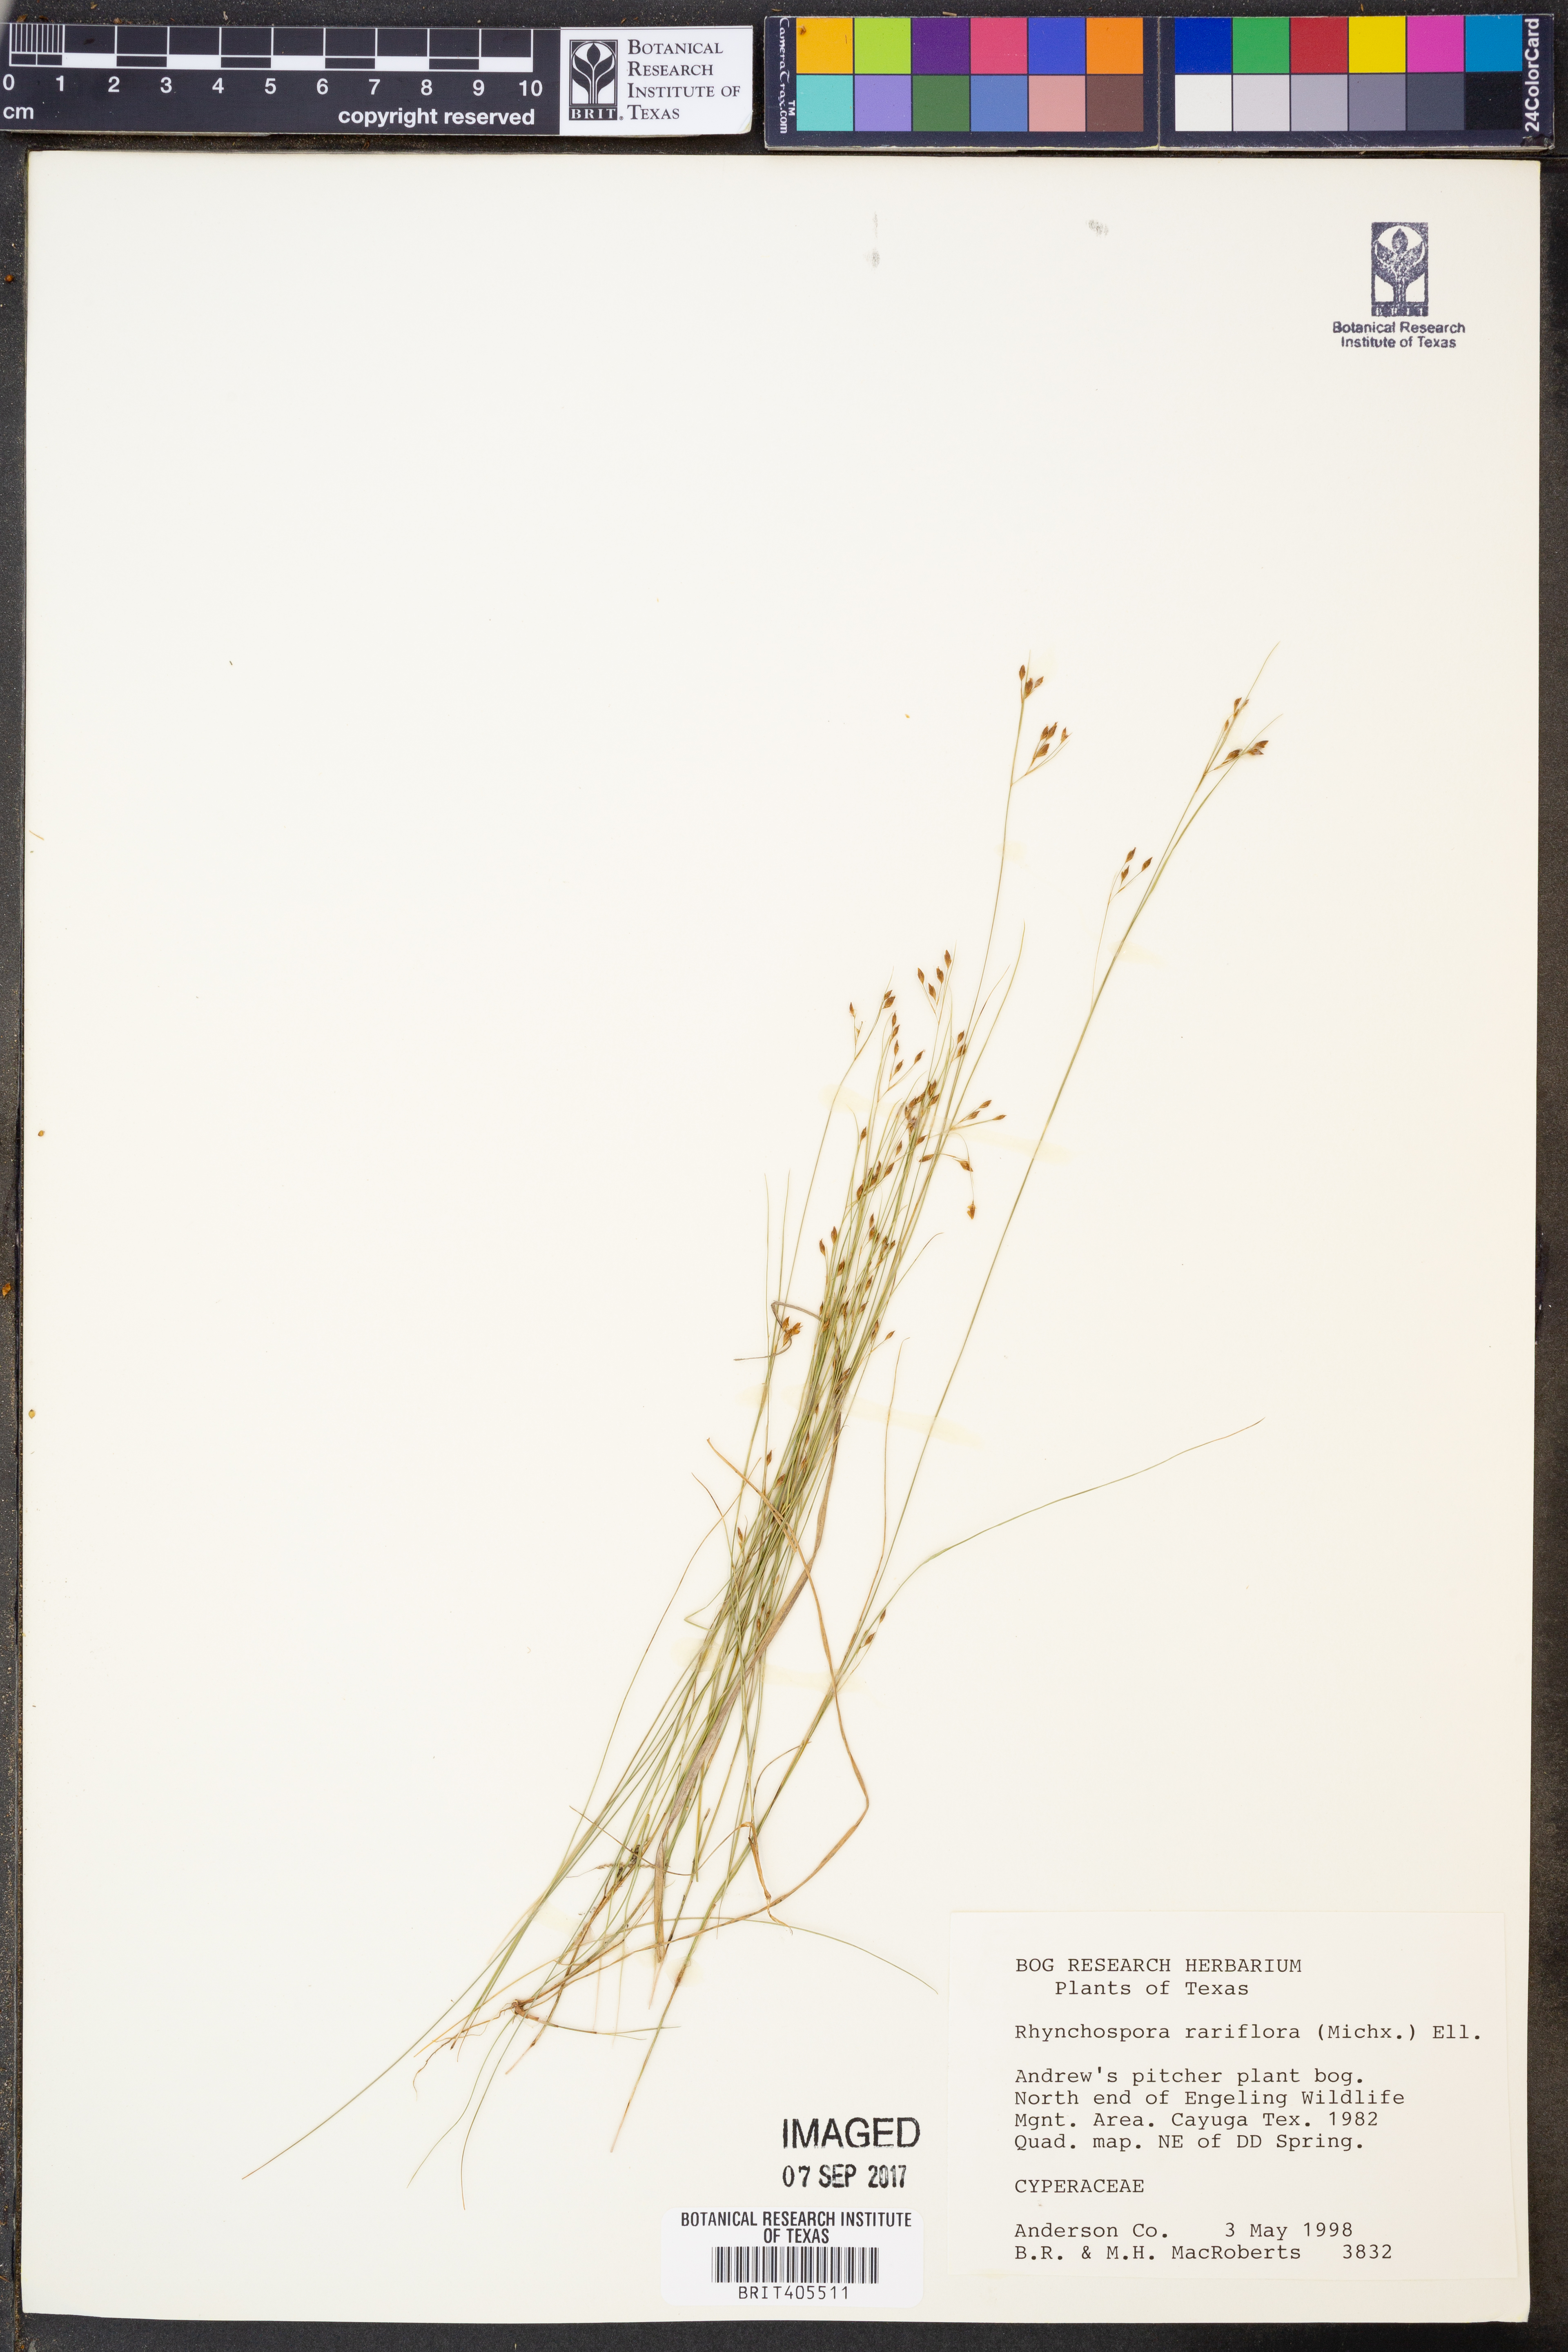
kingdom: Plantae
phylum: Tracheophyta
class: Liliopsida
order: Poales
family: Cyperaceae
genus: Rhynchospora
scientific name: Rhynchospora rariflora
